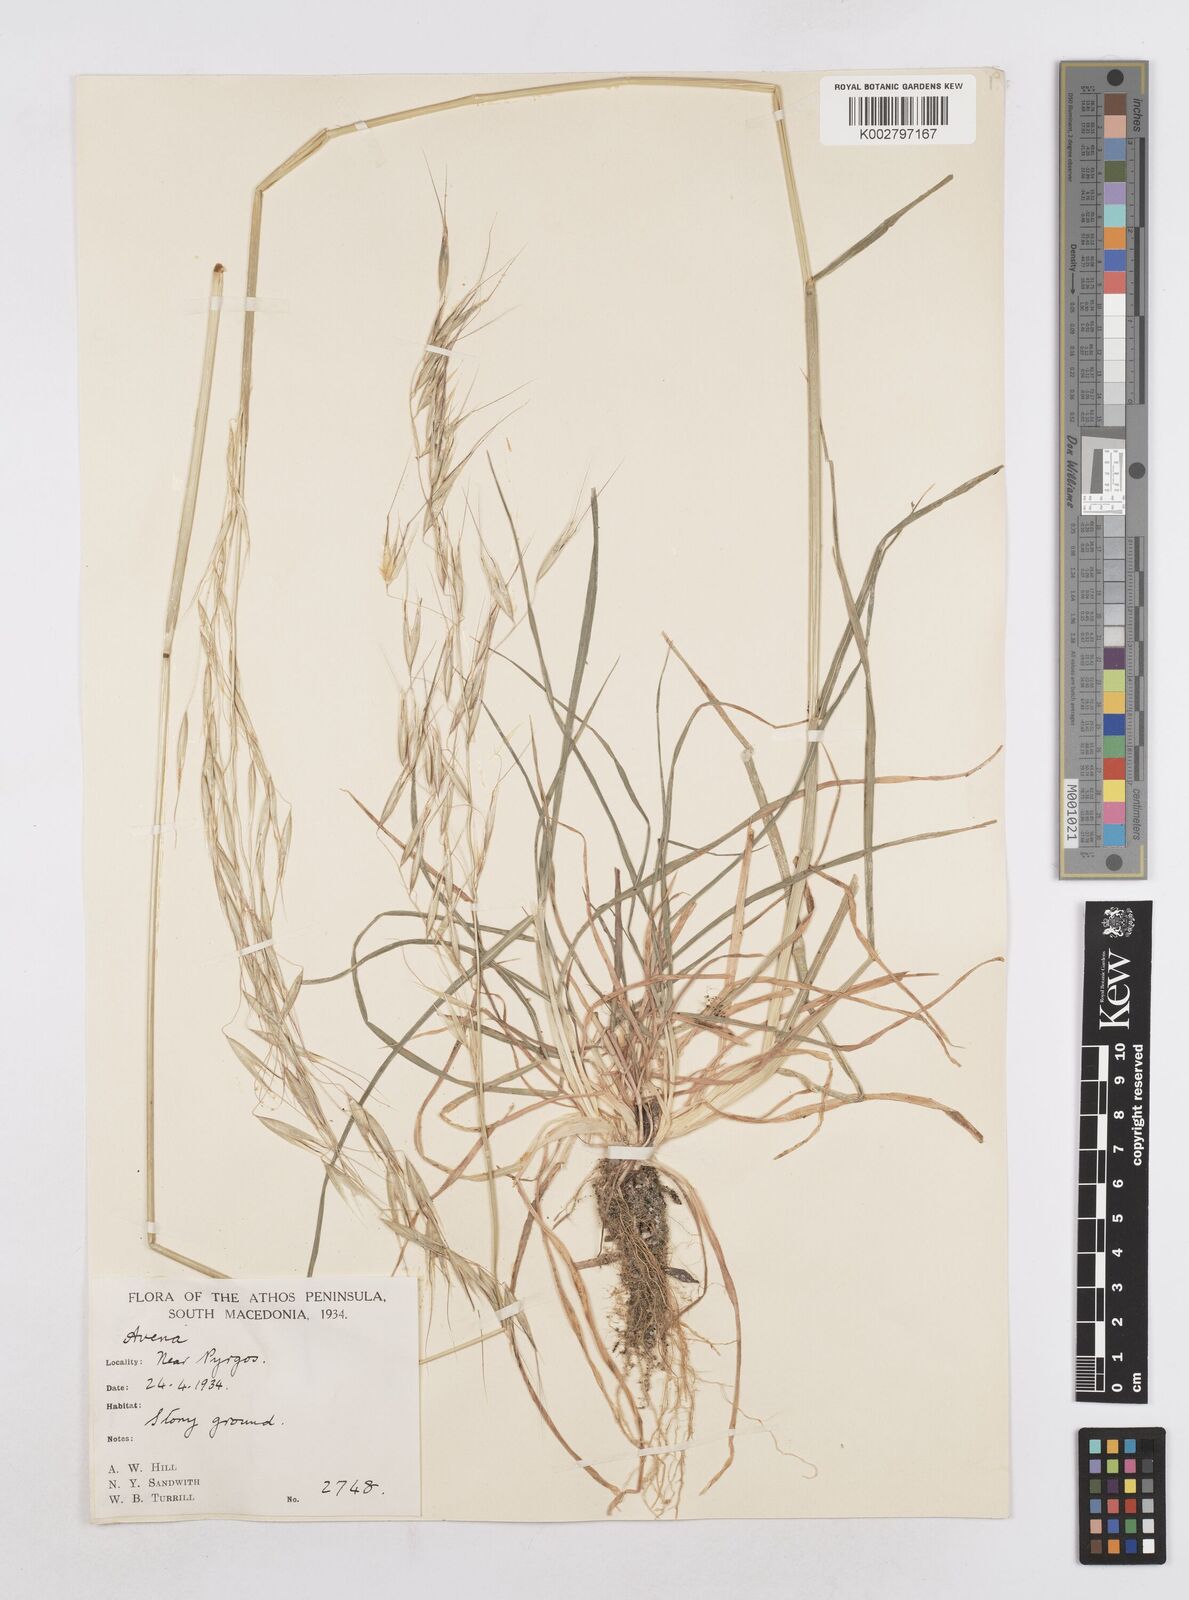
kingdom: Plantae
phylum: Tracheophyta
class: Liliopsida
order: Poales
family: Poaceae
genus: Avena
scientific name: Avena
